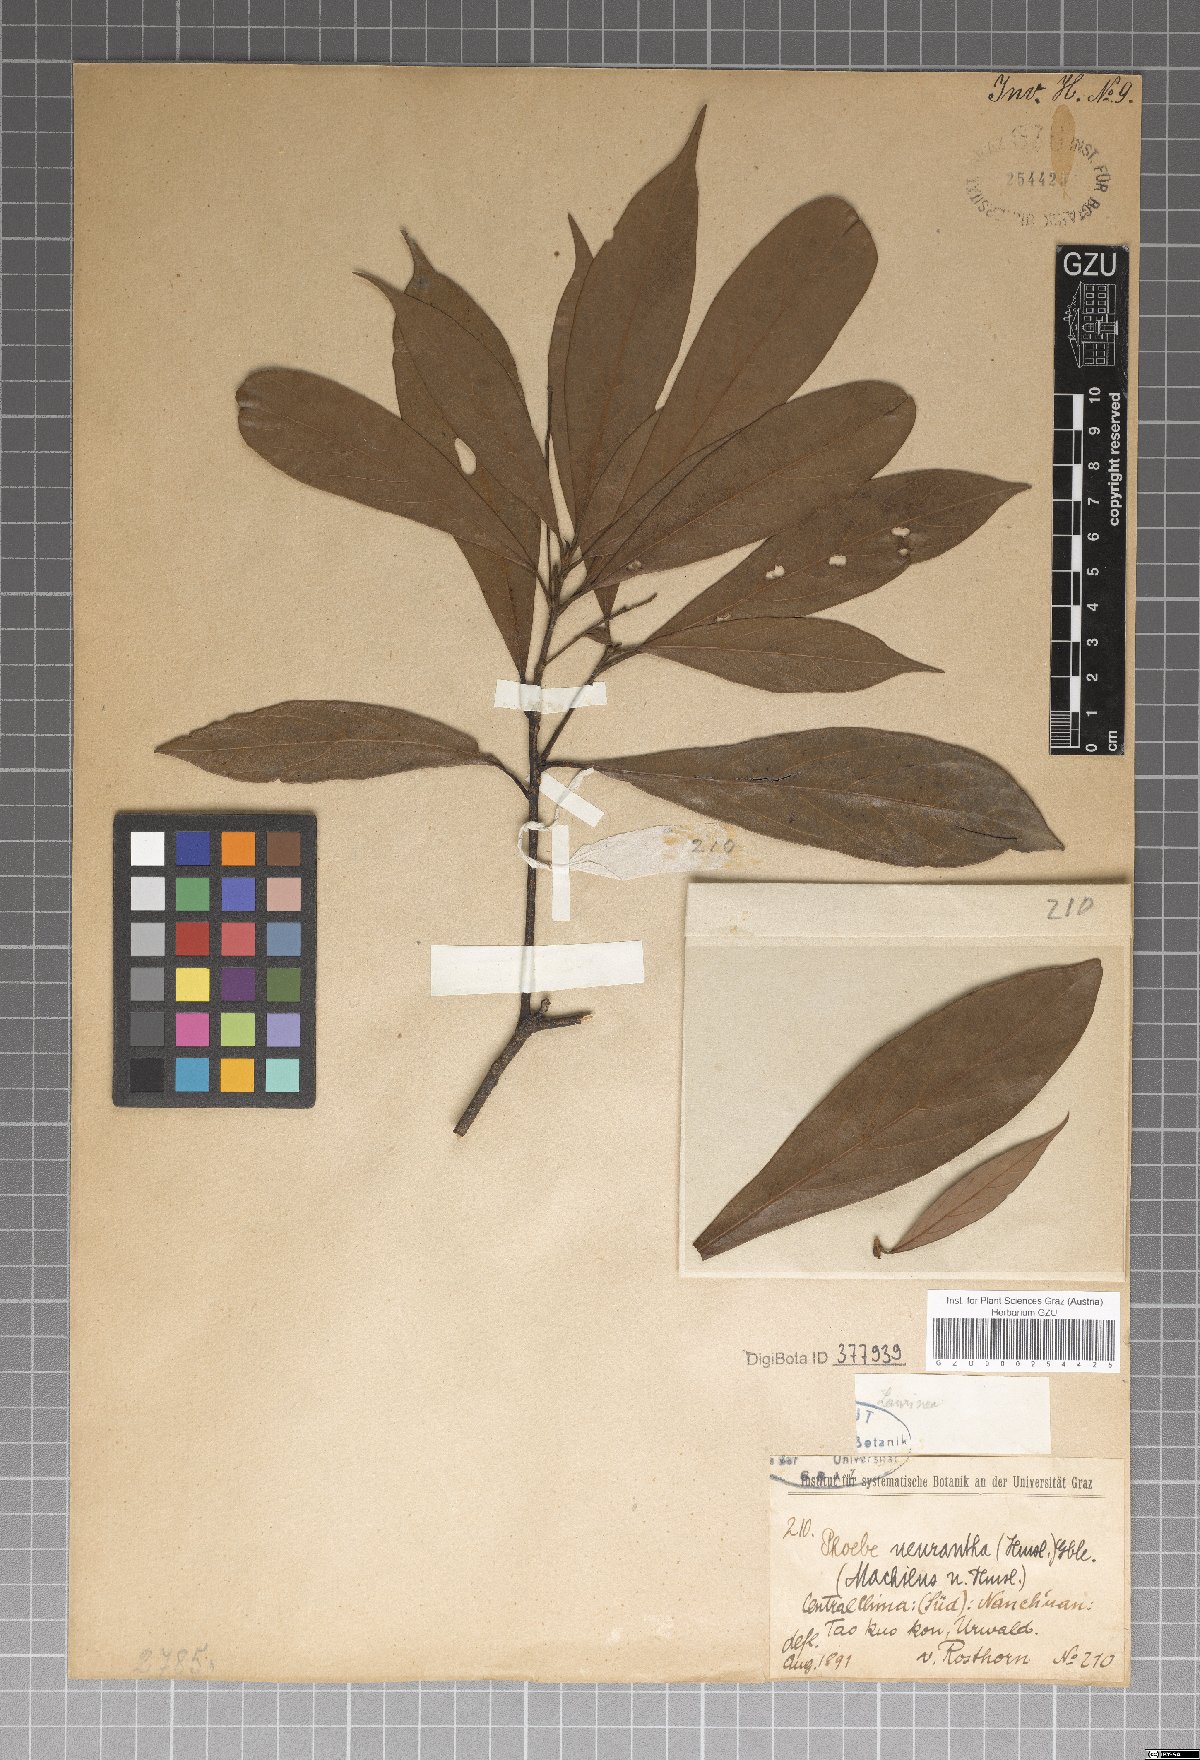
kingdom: Plantae
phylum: Tracheophyta
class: Magnoliopsida
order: Laurales
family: Lauraceae
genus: Phoebe
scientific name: Phoebe neurantha
